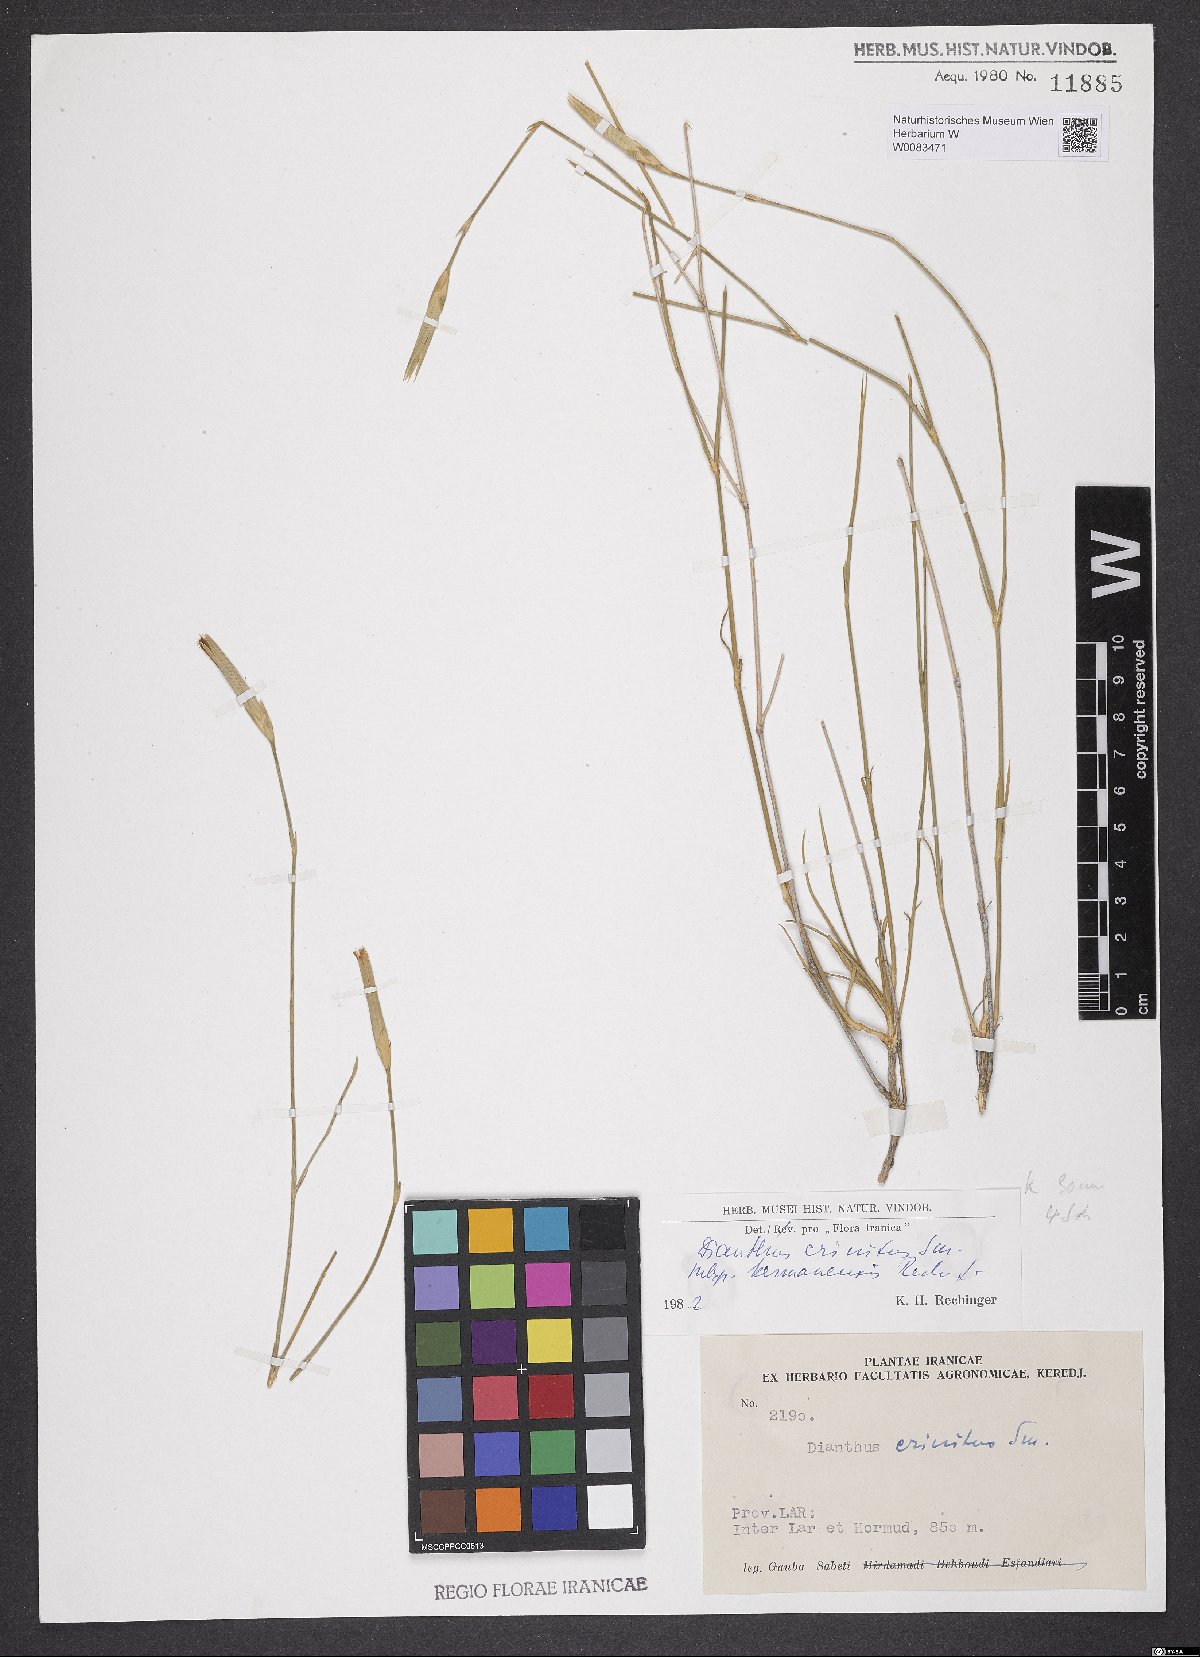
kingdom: Plantae
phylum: Tracheophyta
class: Magnoliopsida
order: Caryophyllales
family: Caryophyllaceae
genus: Dianthus
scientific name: Dianthus crinitus
